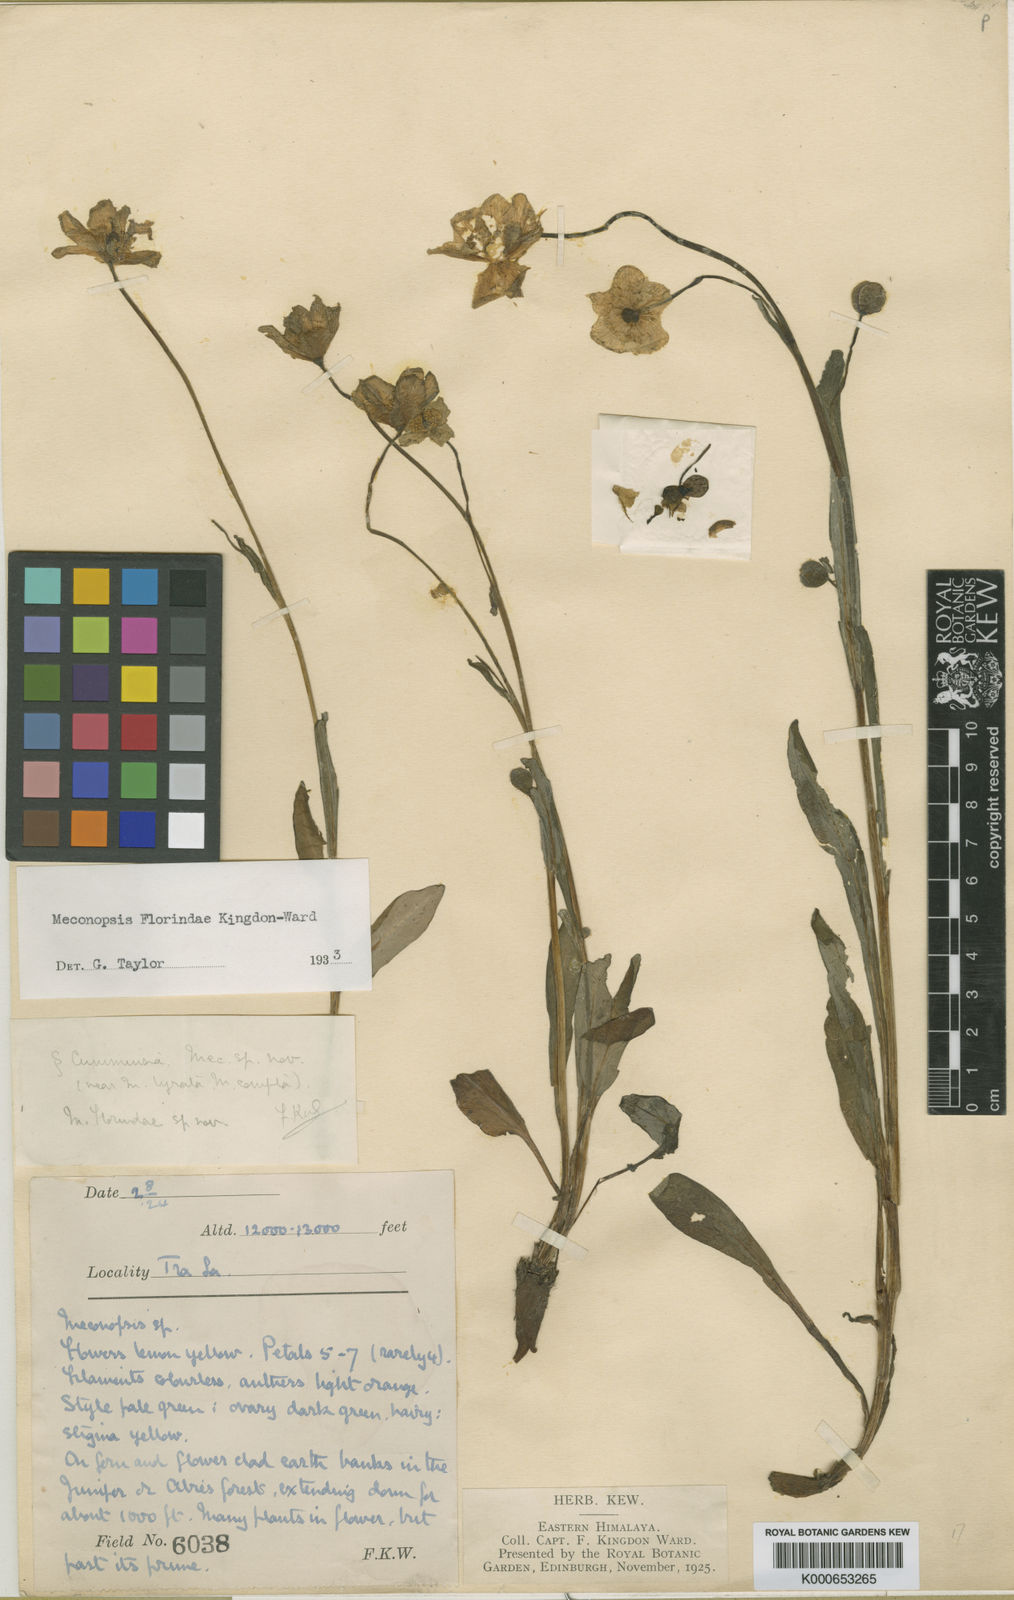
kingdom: Plantae
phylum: Tracheophyta
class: Magnoliopsida
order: Ranunculales
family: Papaveraceae
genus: Meconopsis
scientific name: Meconopsis florindae
